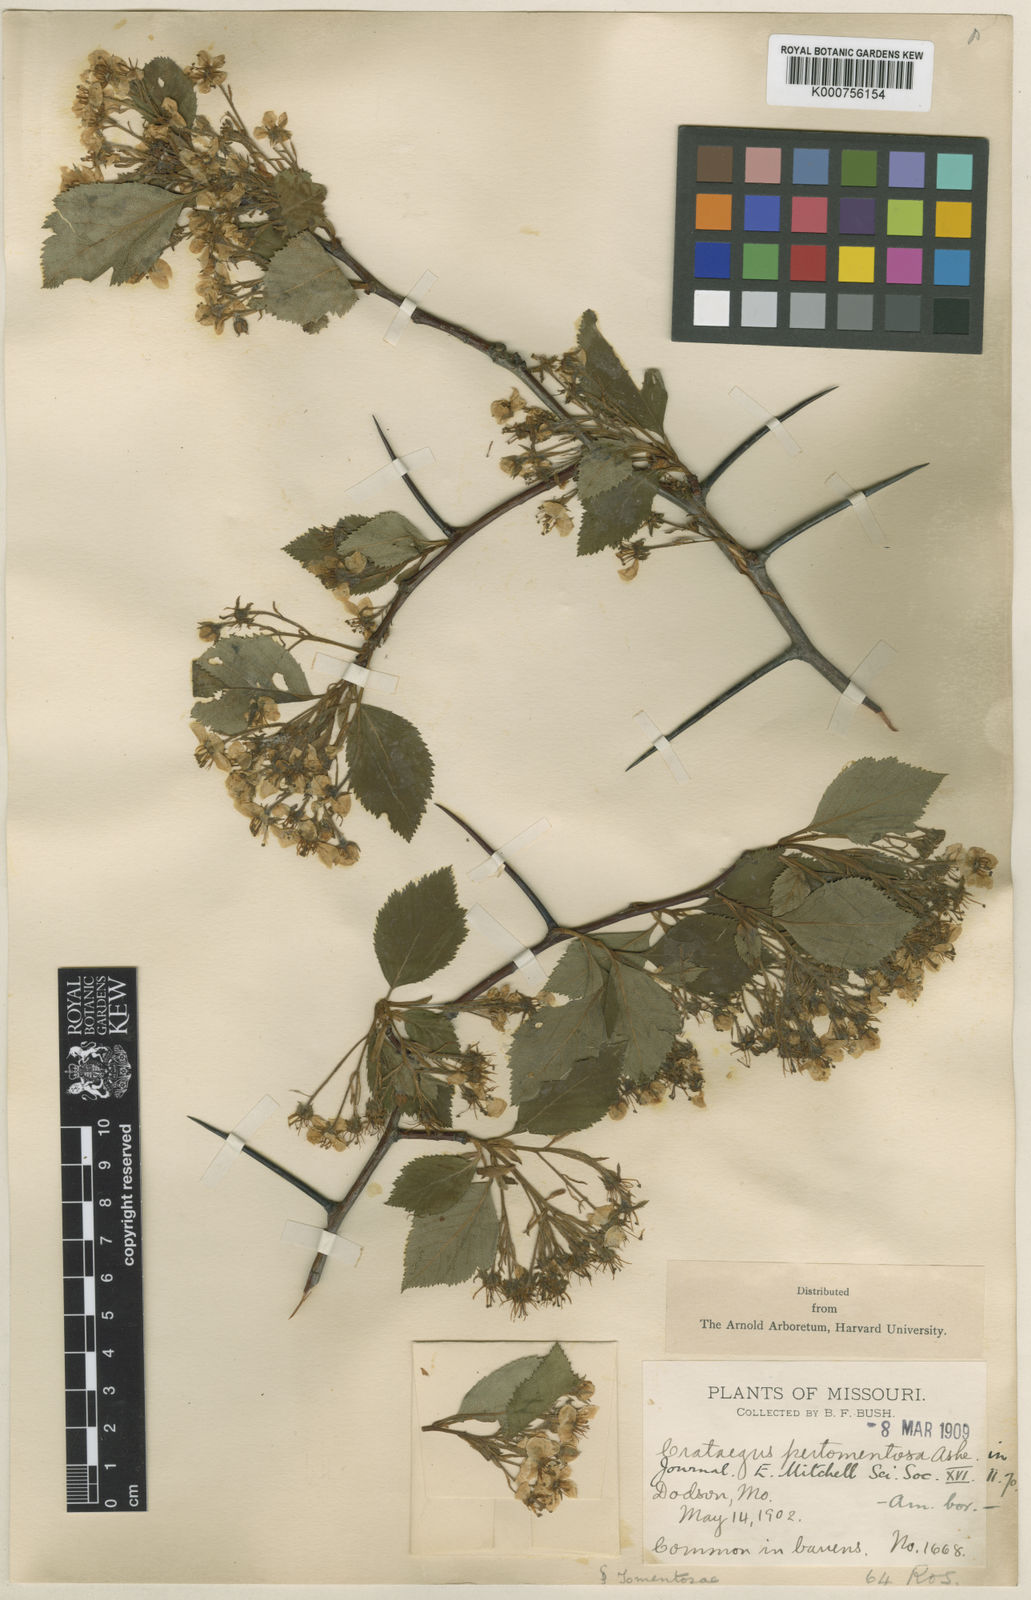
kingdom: Plantae
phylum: Tracheophyta
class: Magnoliopsida
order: Rosales
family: Rosaceae
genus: Crataegus
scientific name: Crataegus macracantha
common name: Large-thorn hawthorn
